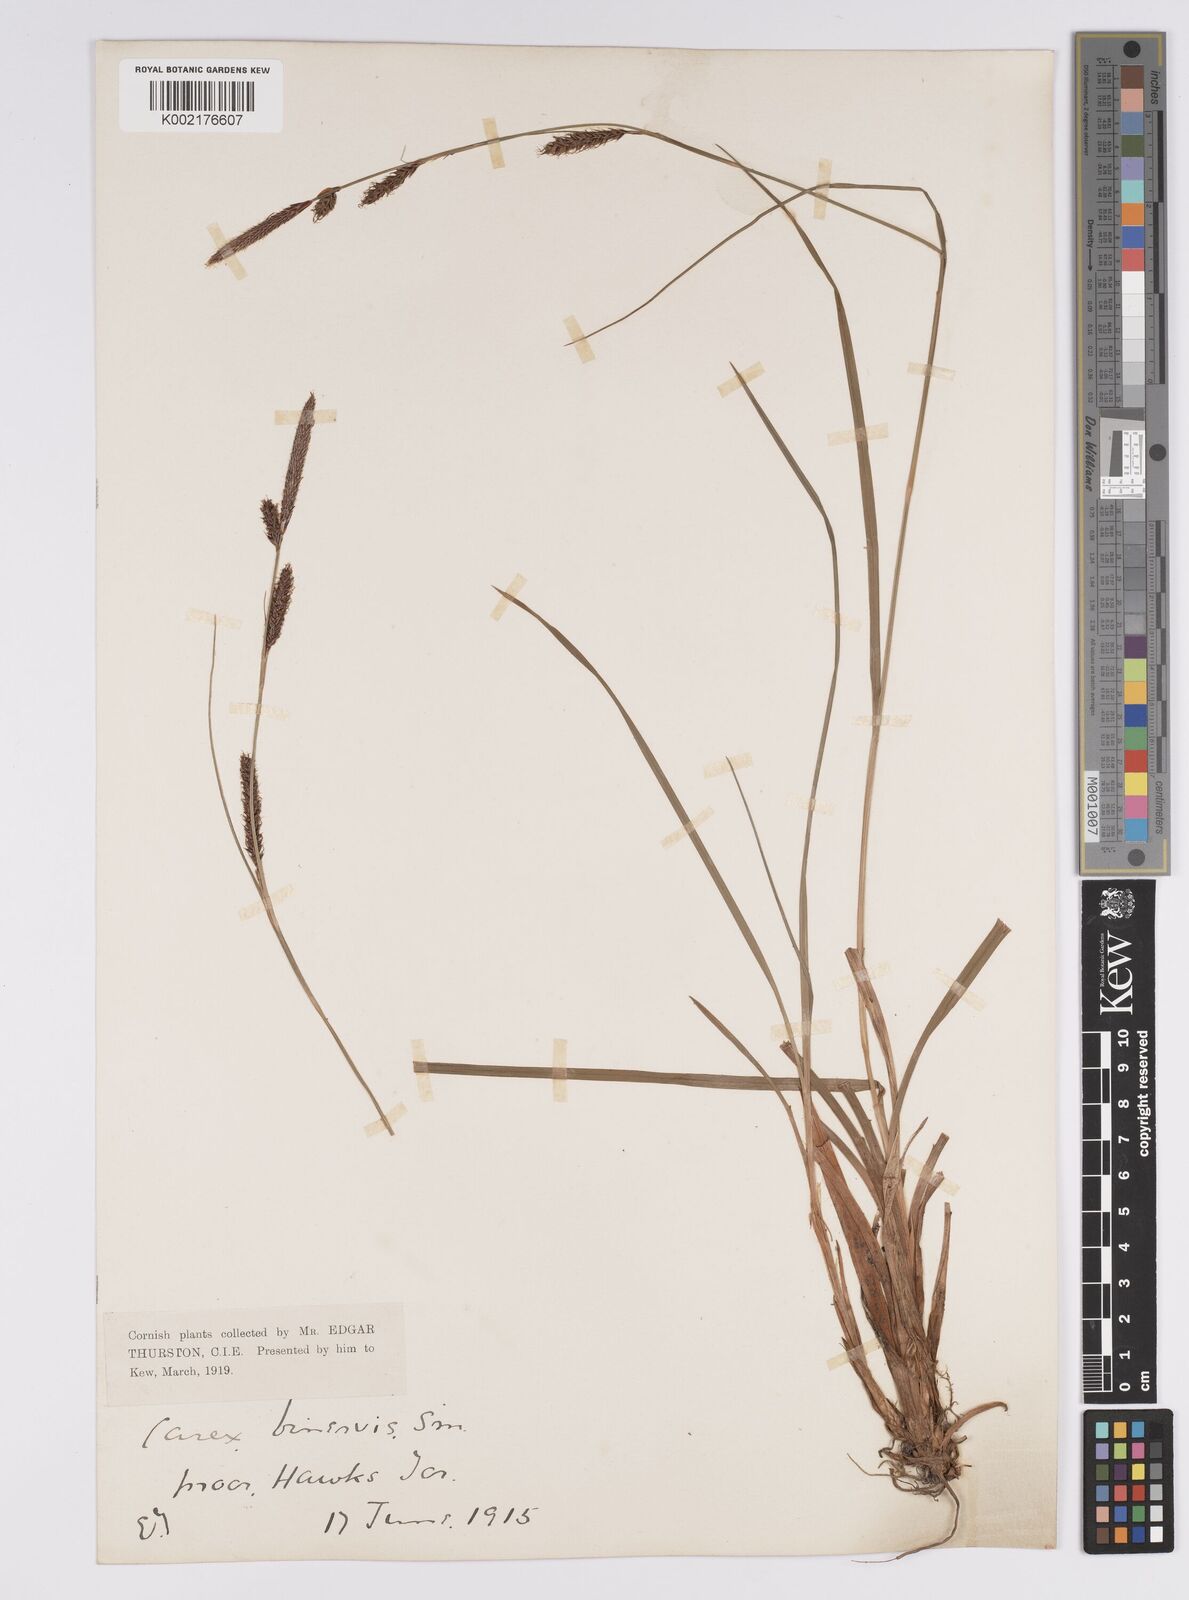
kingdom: Plantae
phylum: Tracheophyta
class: Liliopsida
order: Poales
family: Cyperaceae
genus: Carex
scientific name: Carex binervis
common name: Green-ribbed sedge
